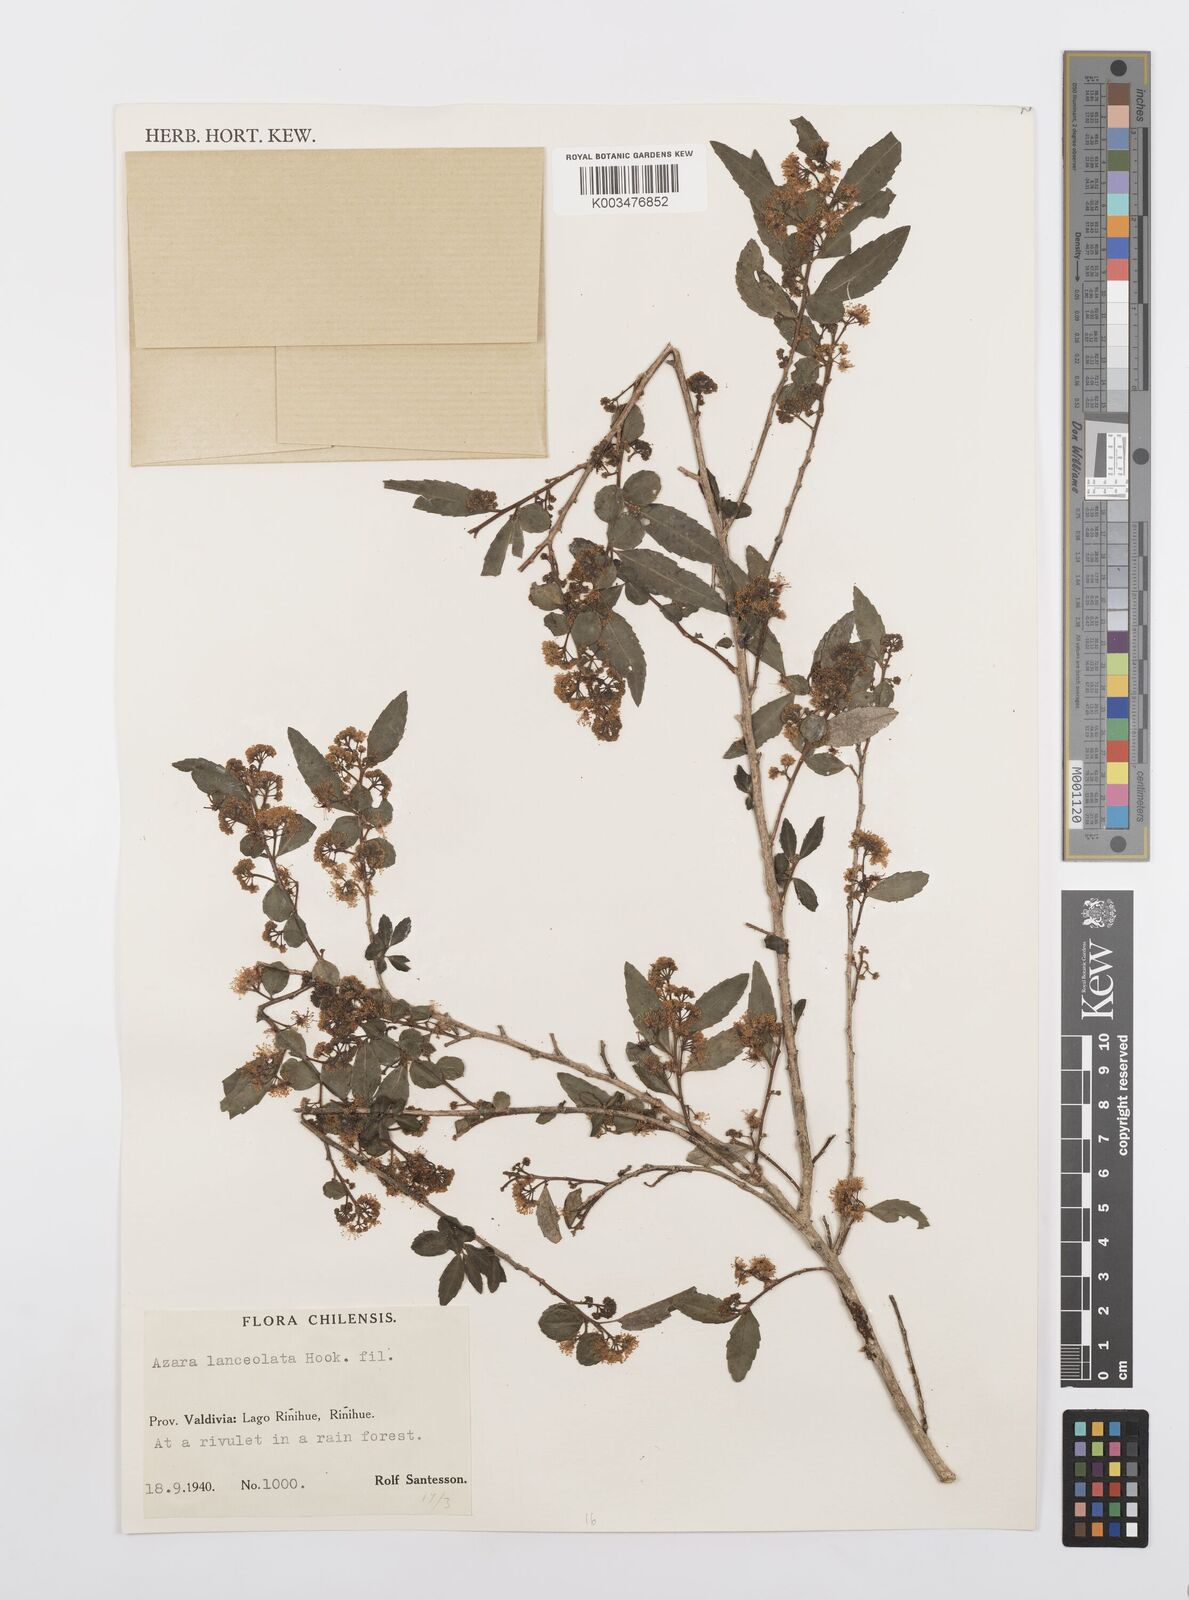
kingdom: Plantae
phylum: Tracheophyta
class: Magnoliopsida
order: Malpighiales
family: Salicaceae
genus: Azara
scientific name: Azara lanceolata
